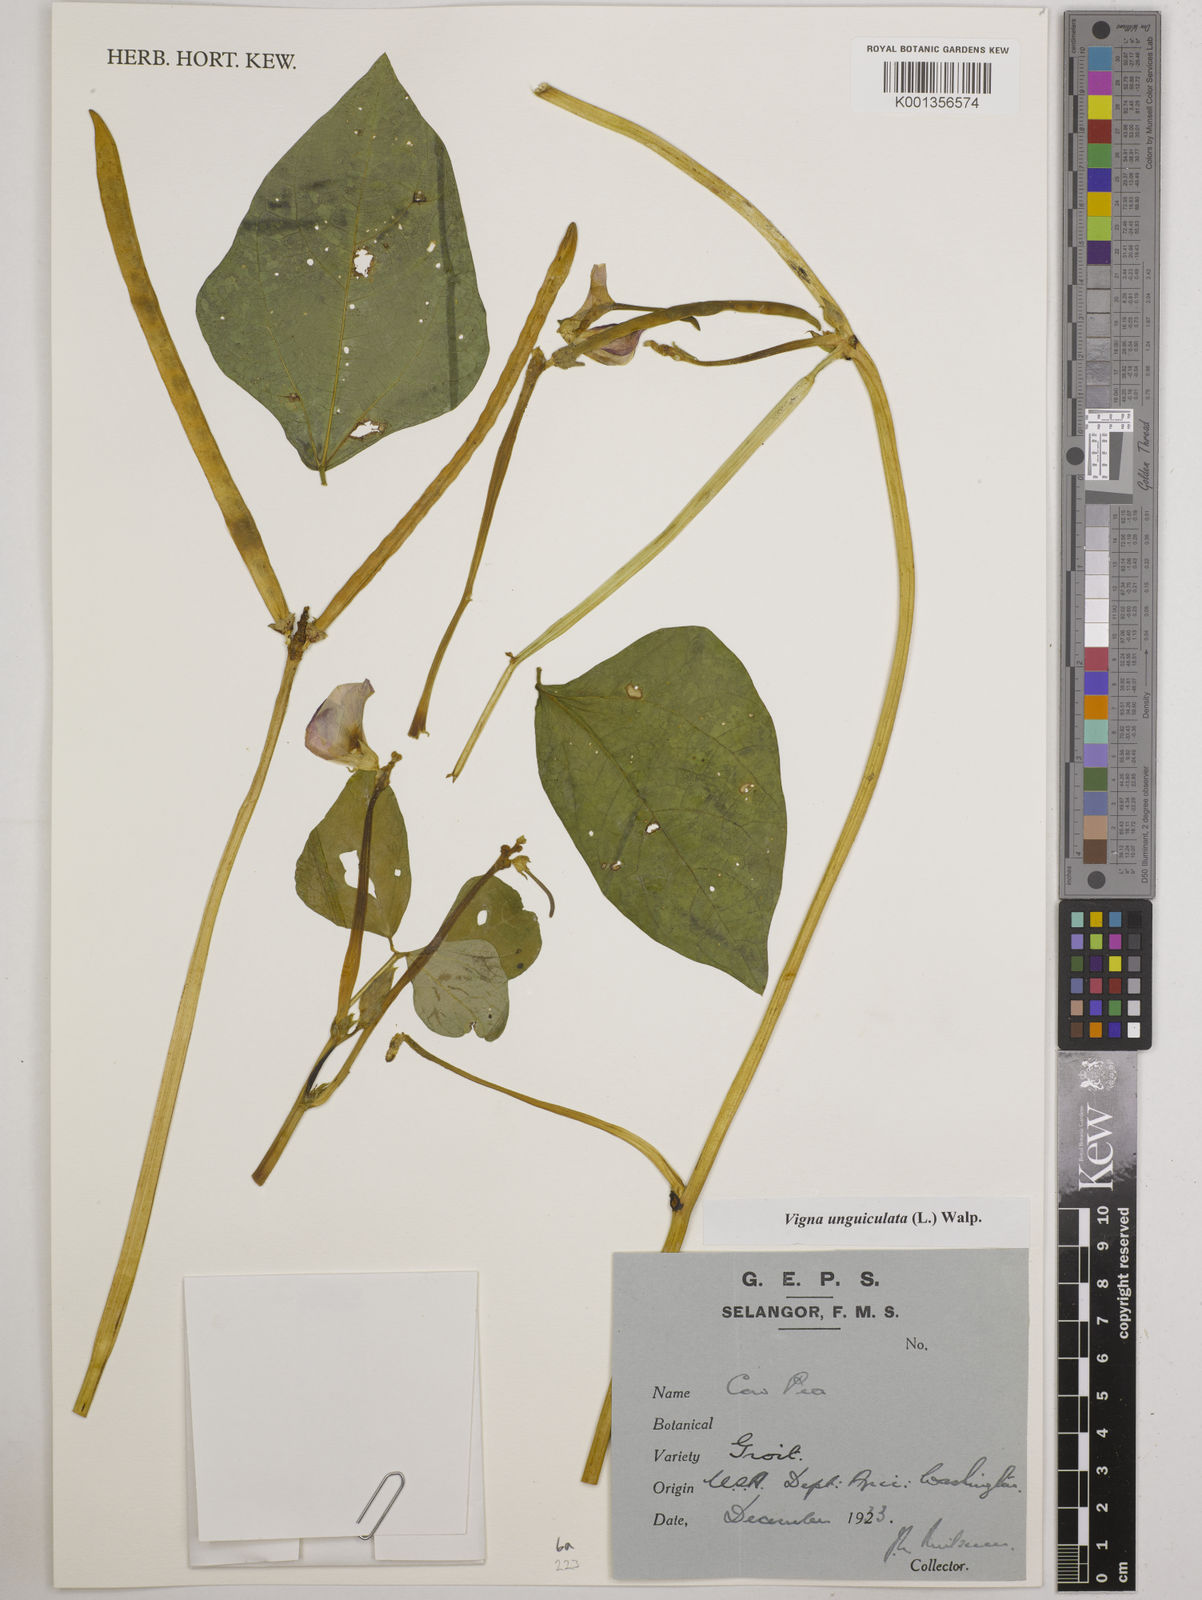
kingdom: Plantae
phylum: Tracheophyta
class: Magnoliopsida
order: Fabales
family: Fabaceae
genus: Vigna
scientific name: Vigna unguiculata
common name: Cowpea
